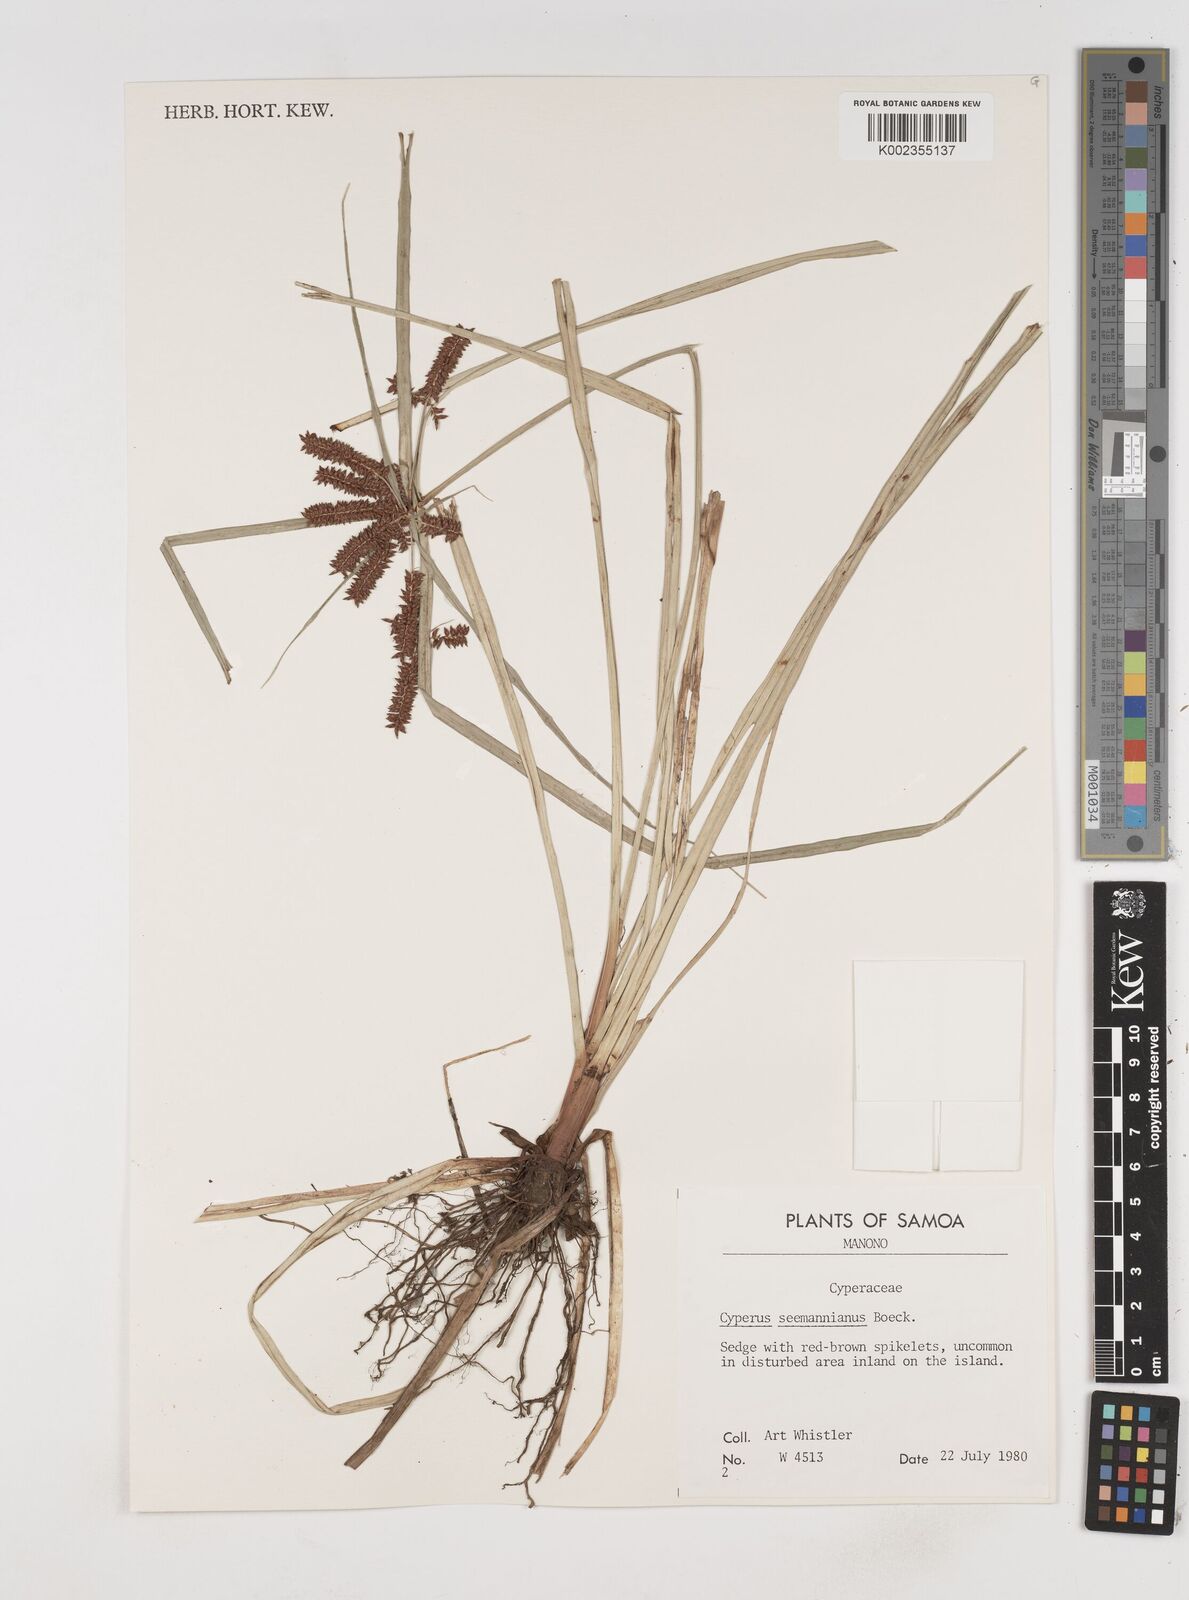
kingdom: Plantae
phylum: Tracheophyta
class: Liliopsida
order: Poales
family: Cyperaceae
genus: Cyperus
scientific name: Cyperus seemannianus
